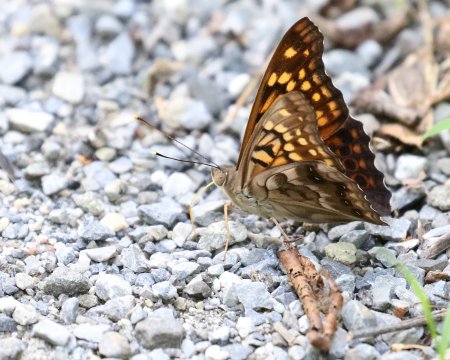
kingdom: Animalia
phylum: Arthropoda
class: Insecta
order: Lepidoptera
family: Nymphalidae
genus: Asterocampa
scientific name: Asterocampa clyton
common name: Tawny Emperor
